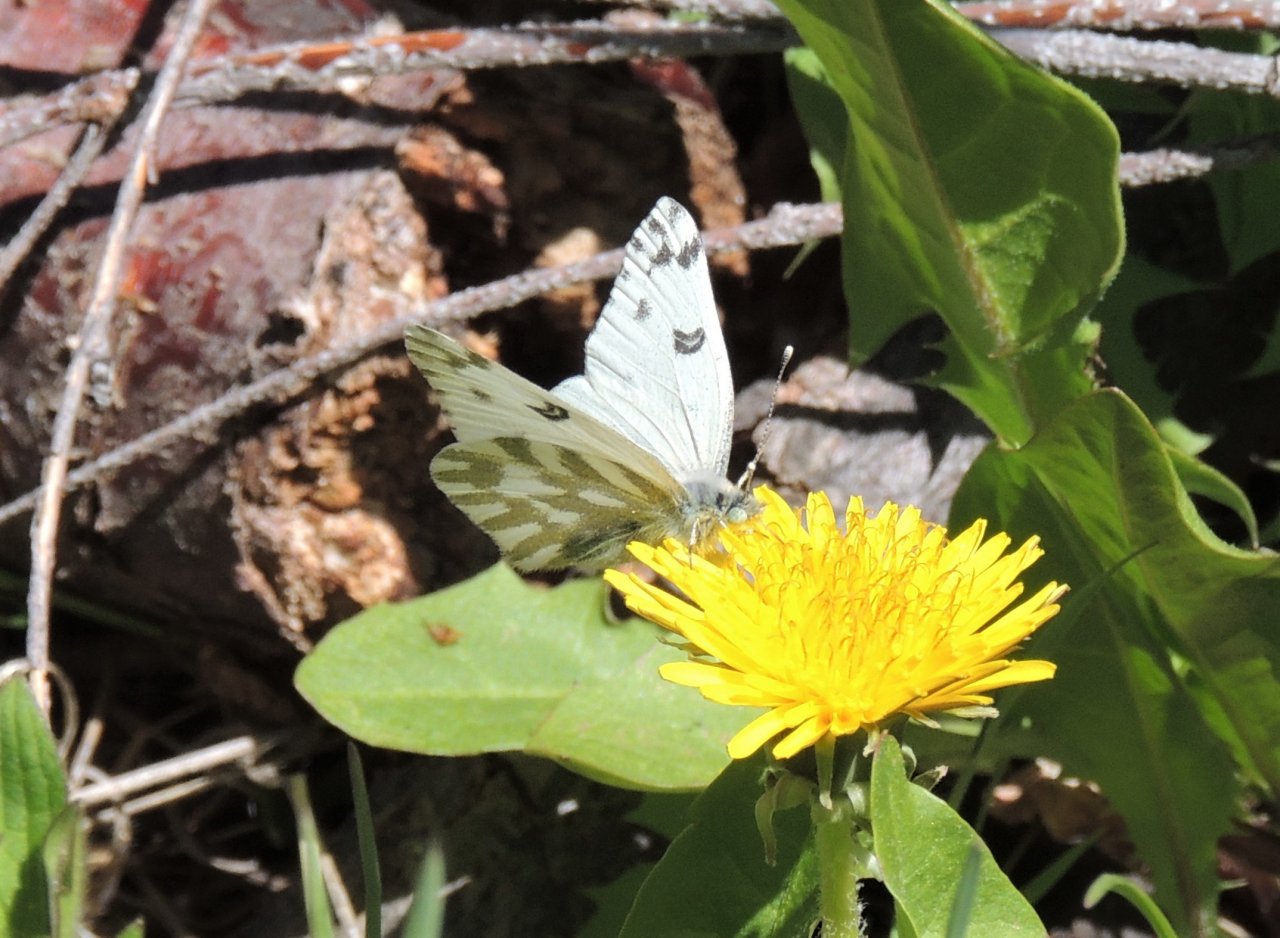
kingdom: Animalia
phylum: Arthropoda
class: Insecta
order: Lepidoptera
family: Pieridae
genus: Pontia
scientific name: Pontia beckerii
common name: Becker's White
